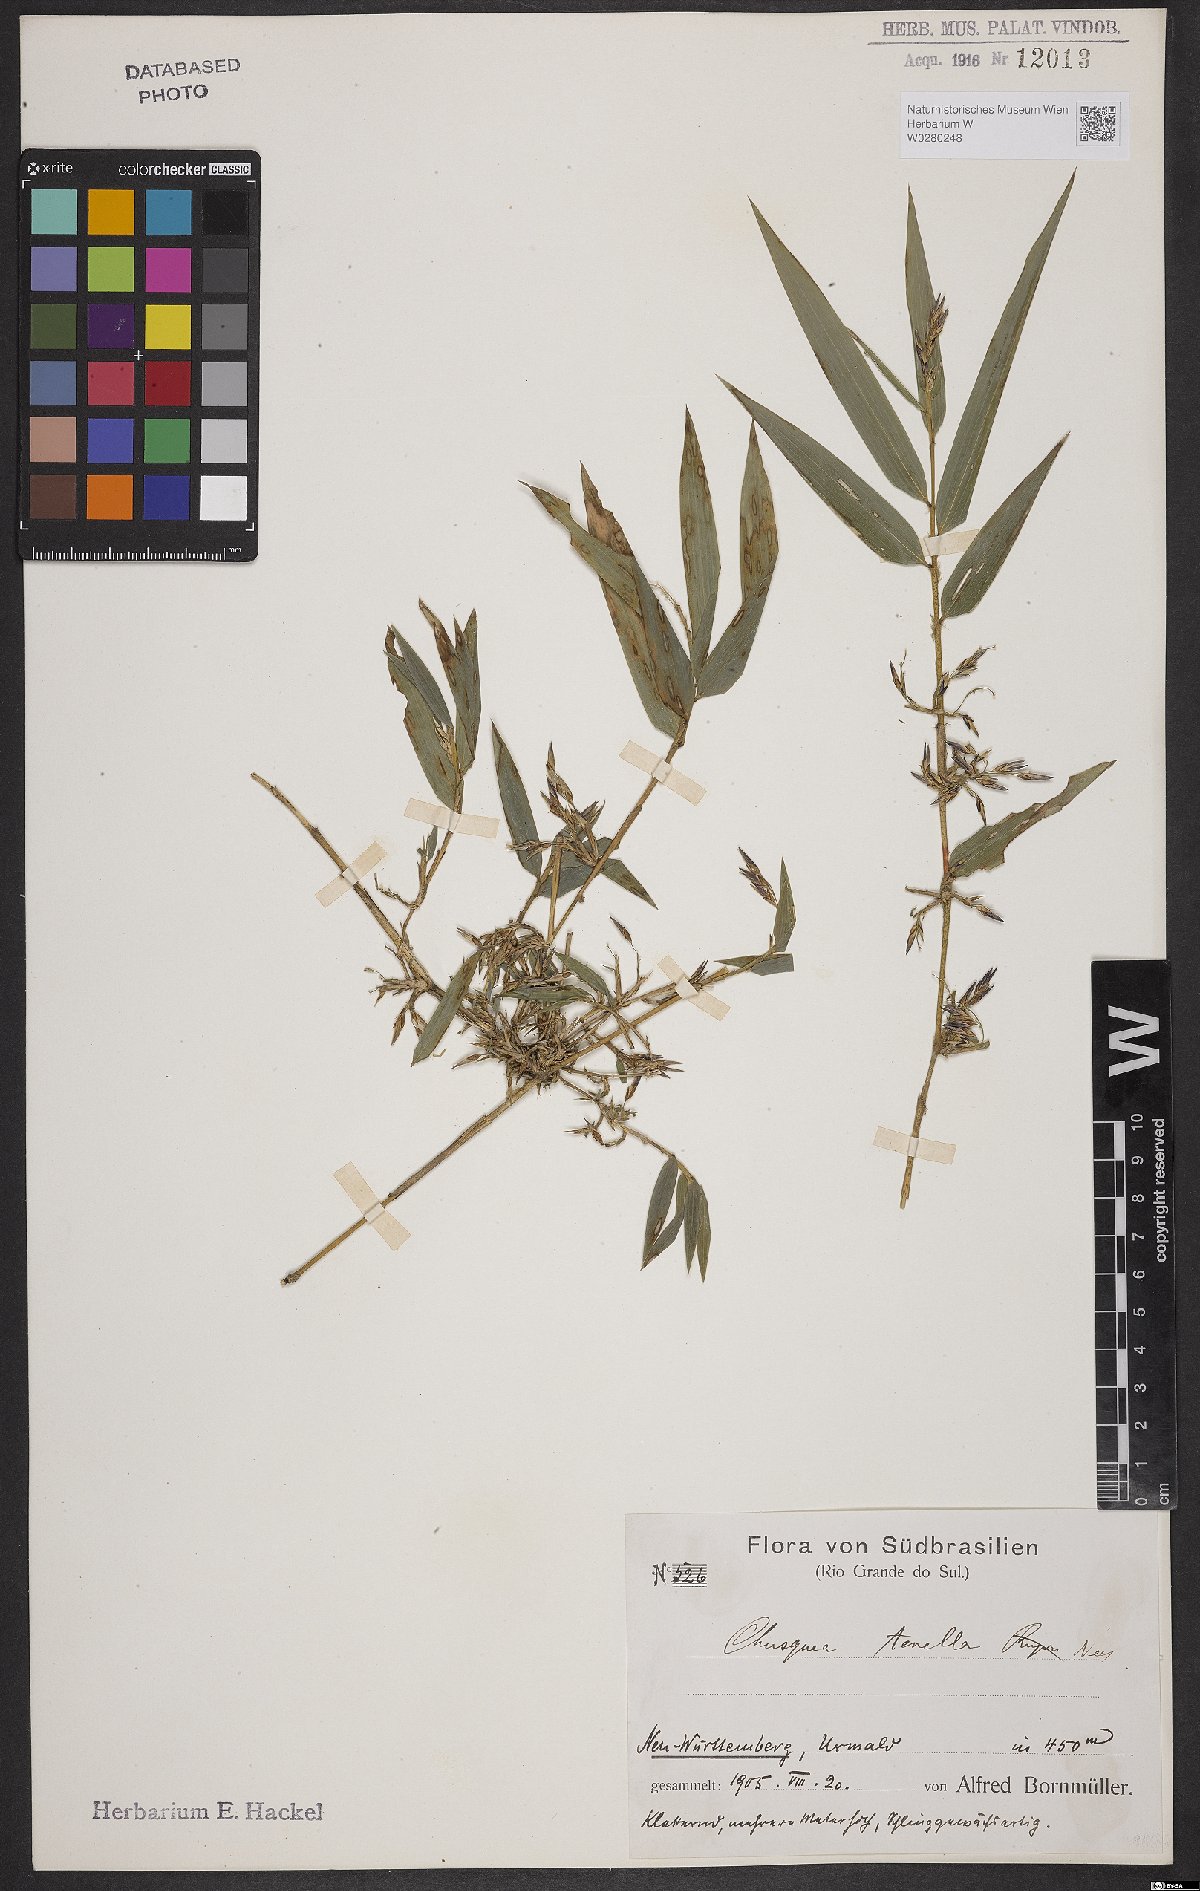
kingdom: Plantae
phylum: Tracheophyta
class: Liliopsida
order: Poales
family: Poaceae
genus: Chusquea
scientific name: Chusquea tenella
